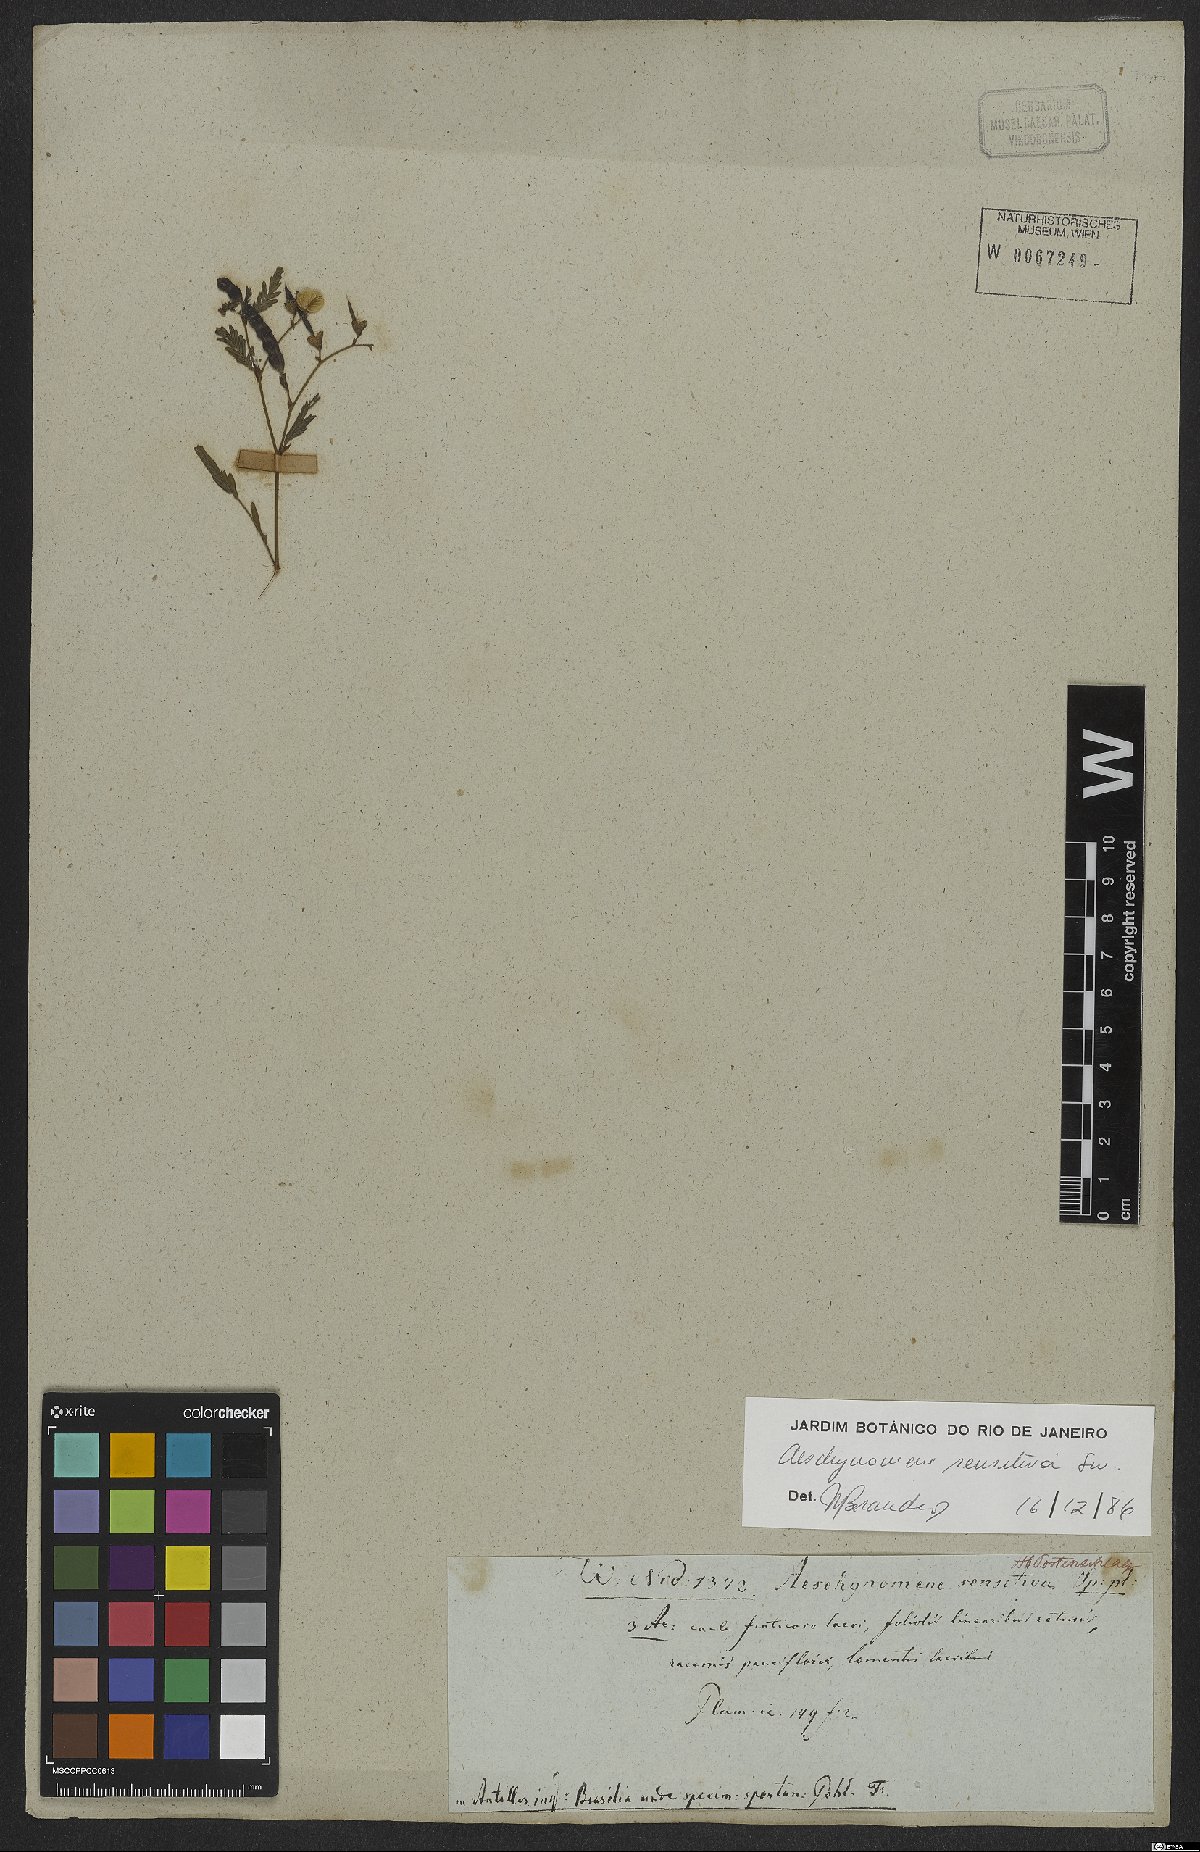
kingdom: Plantae
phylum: Tracheophyta
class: Magnoliopsida
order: Fabales
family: Fabaceae
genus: Aeschynomene
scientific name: Aeschynomene sensitiva
